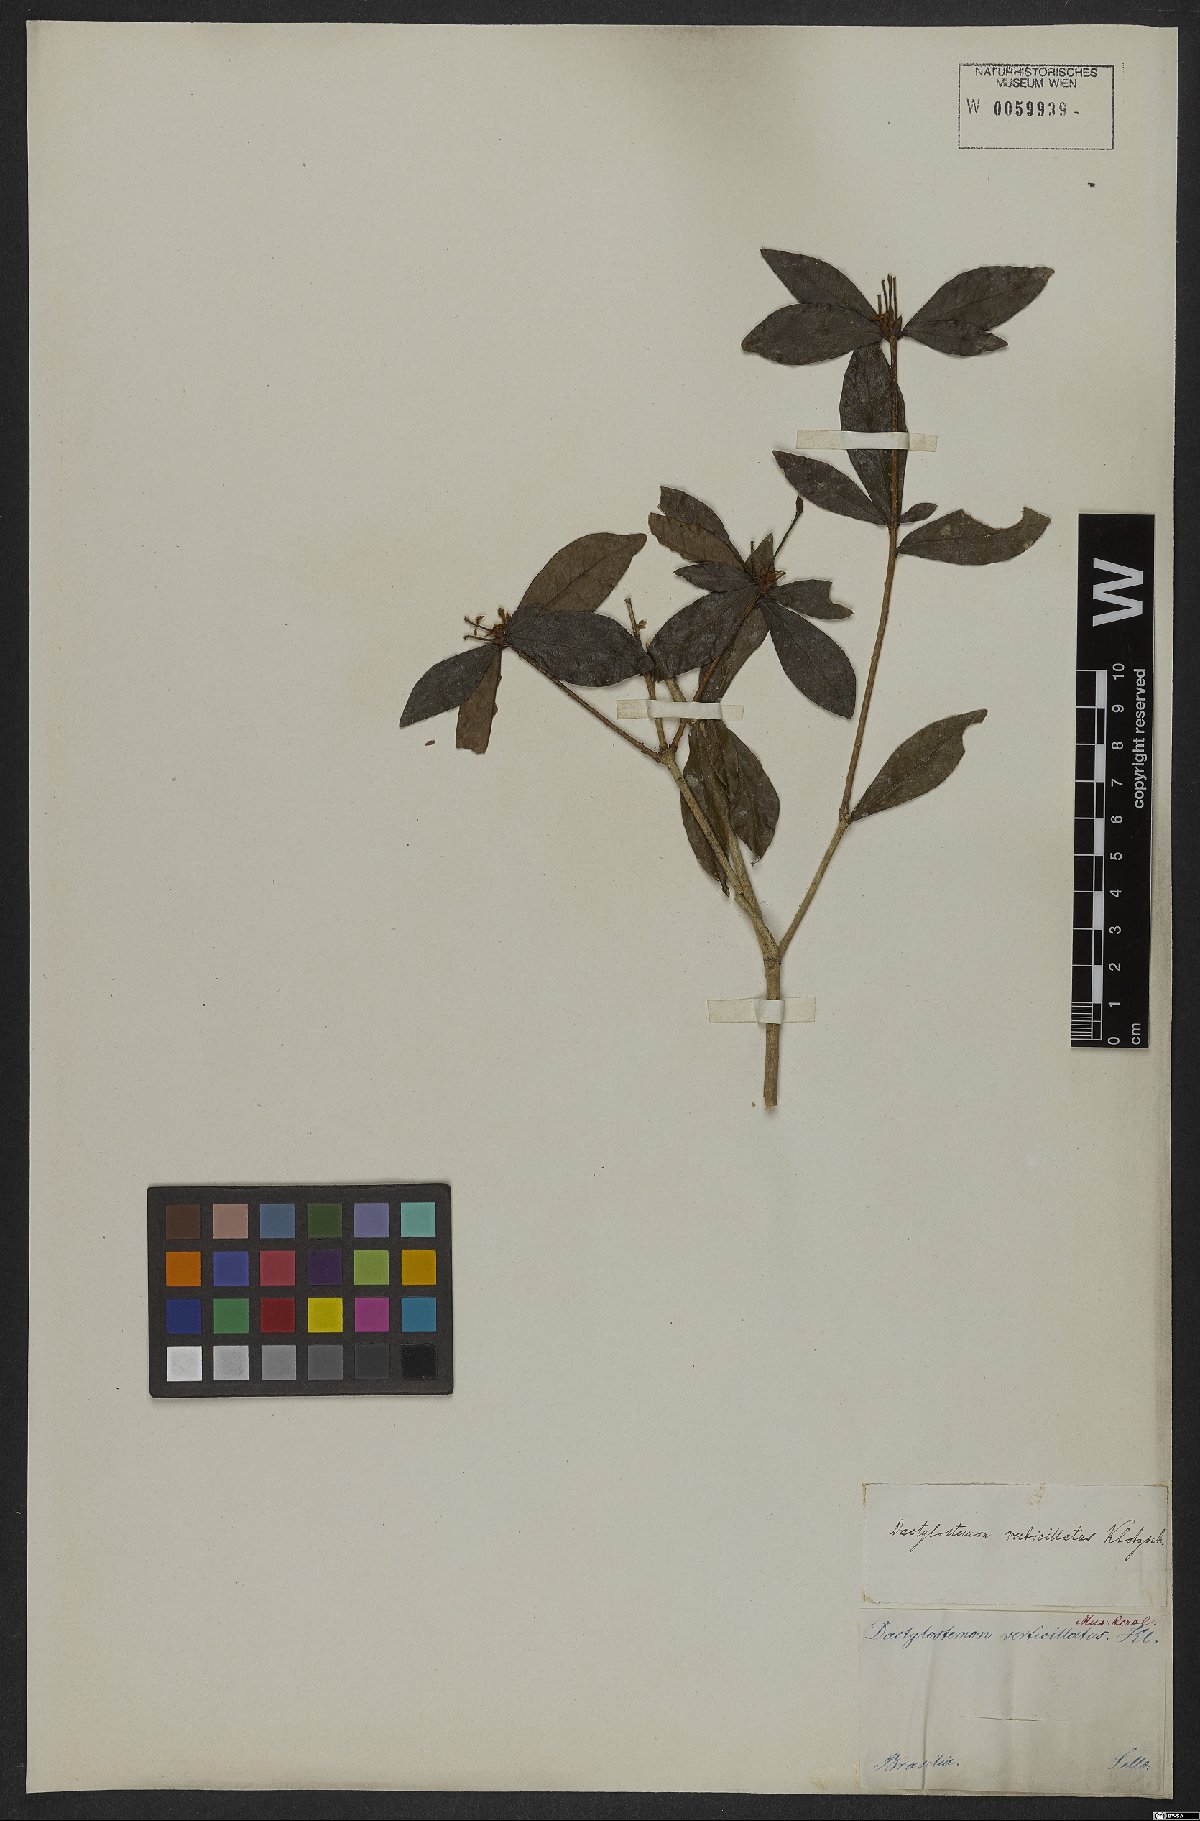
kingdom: Plantae
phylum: Tracheophyta
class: Magnoliopsida
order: Malpighiales
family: Euphorbiaceae
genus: Actinostemon
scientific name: Actinostemon verticillatus
